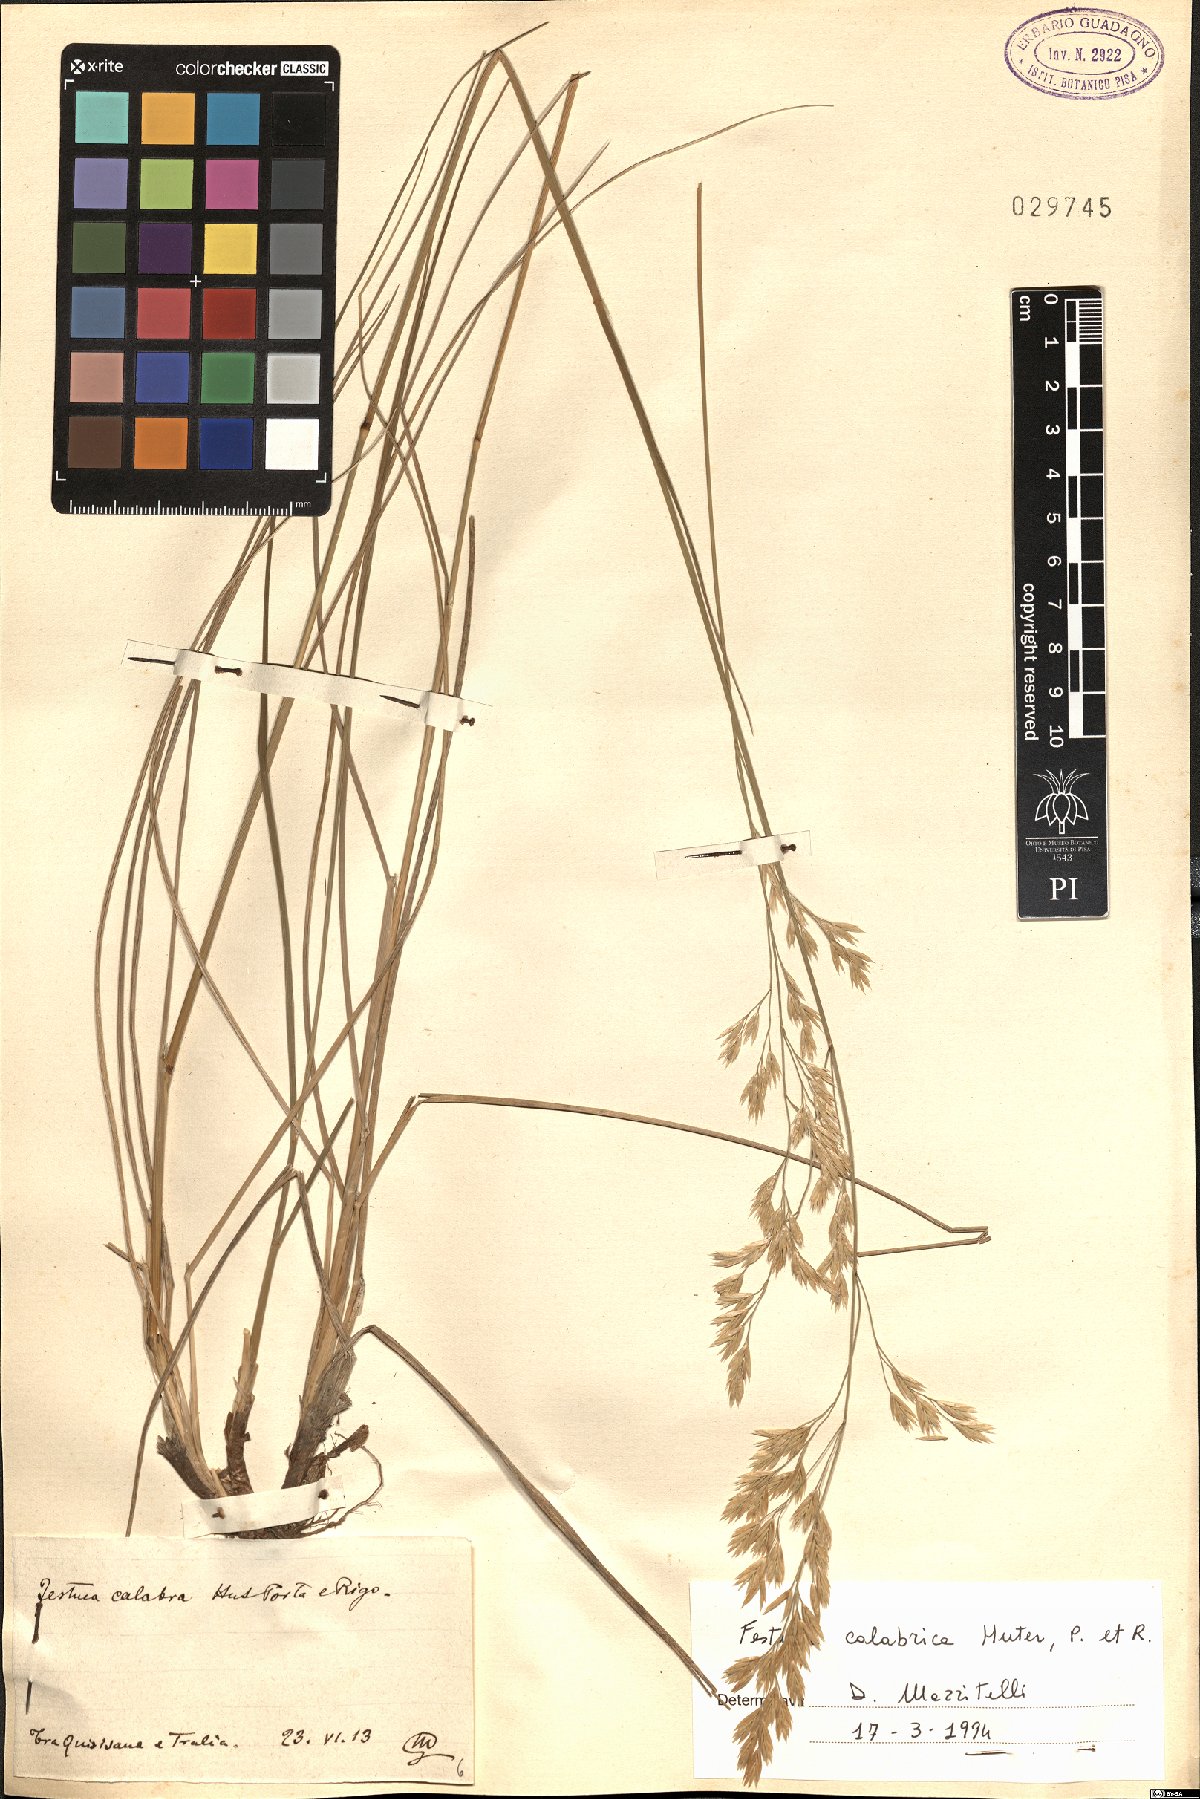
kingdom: Plantae
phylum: Tracheophyta
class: Liliopsida
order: Poales
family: Poaceae
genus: Festuca
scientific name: Festuca calabrica
